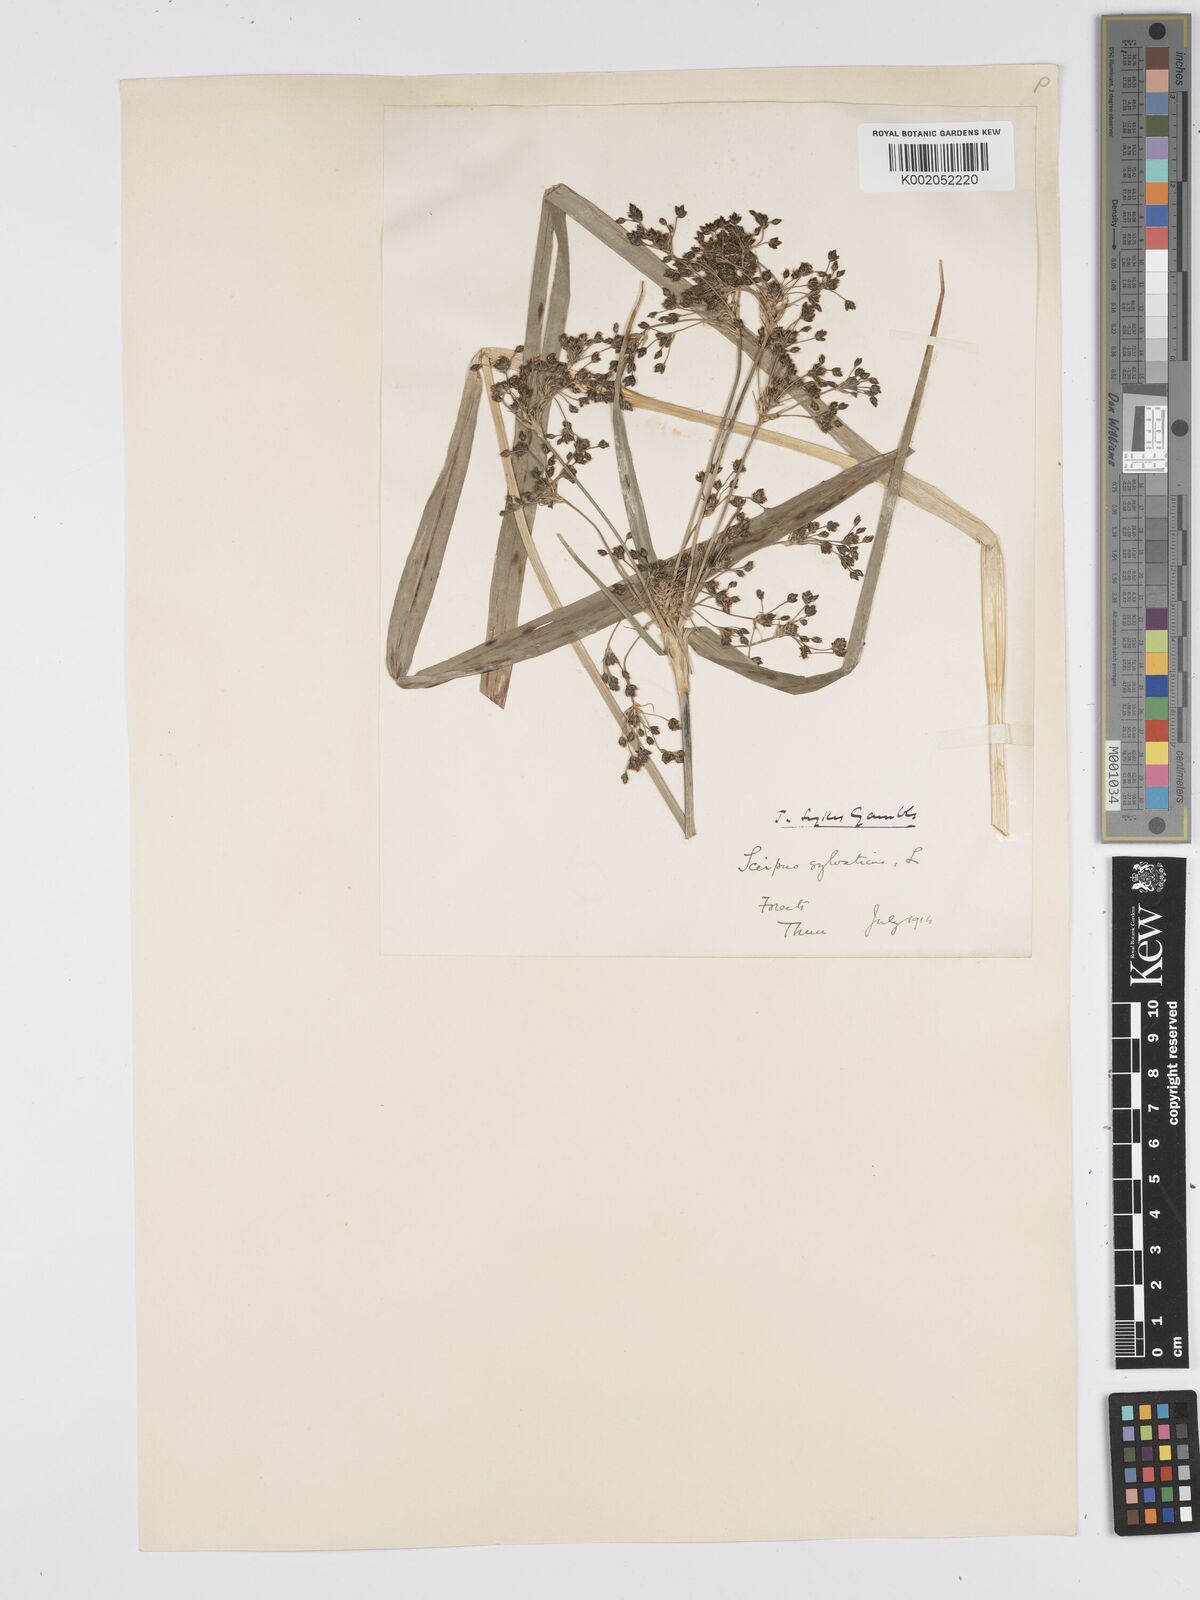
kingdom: Plantae
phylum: Tracheophyta
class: Liliopsida
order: Poales
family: Cyperaceae
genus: Scirpus
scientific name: Scirpus sylvaticus
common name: Wood club-rush
